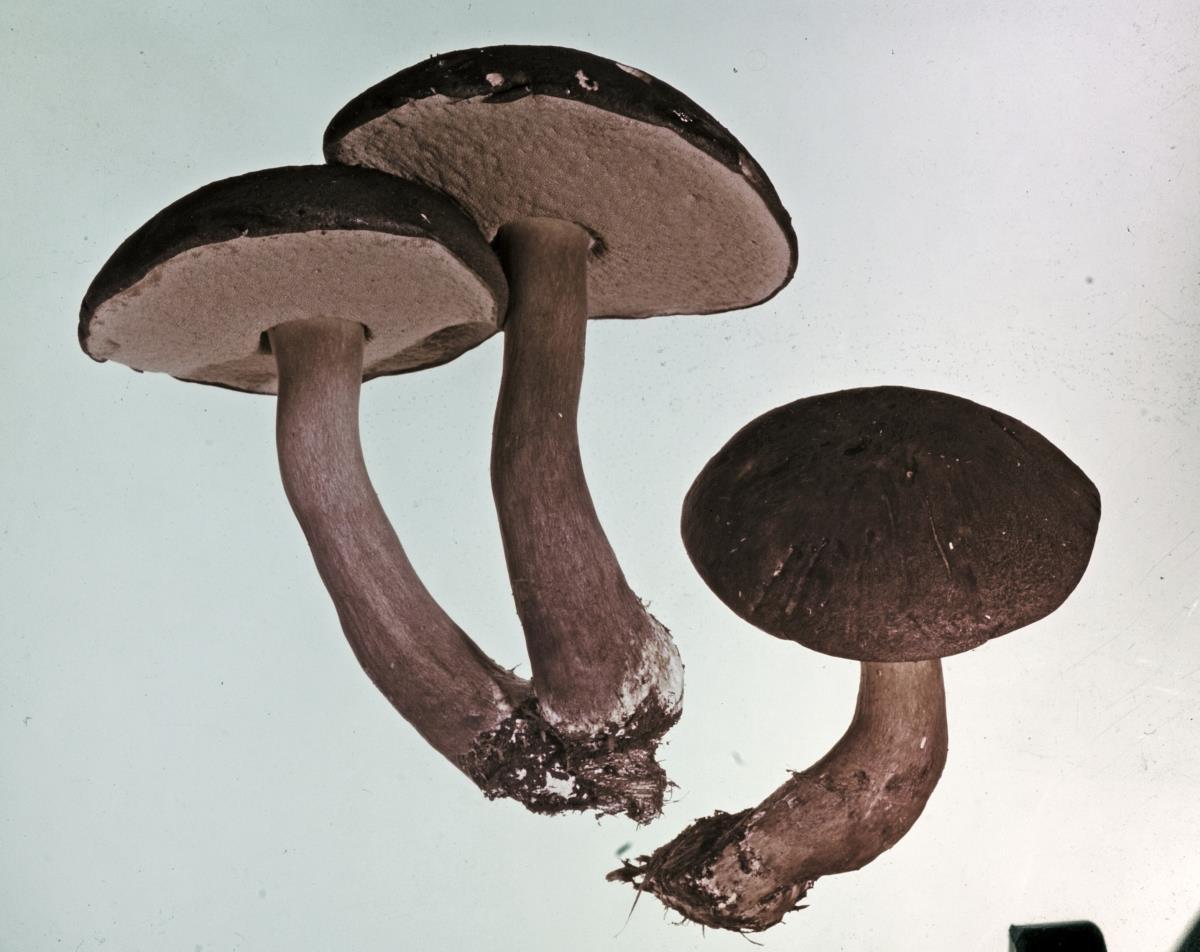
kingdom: Fungi
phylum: Basidiomycota
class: Agaricomycetes
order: Boletales
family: Boletaceae
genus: Porphyrellus
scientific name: Porphyrellus formosus
